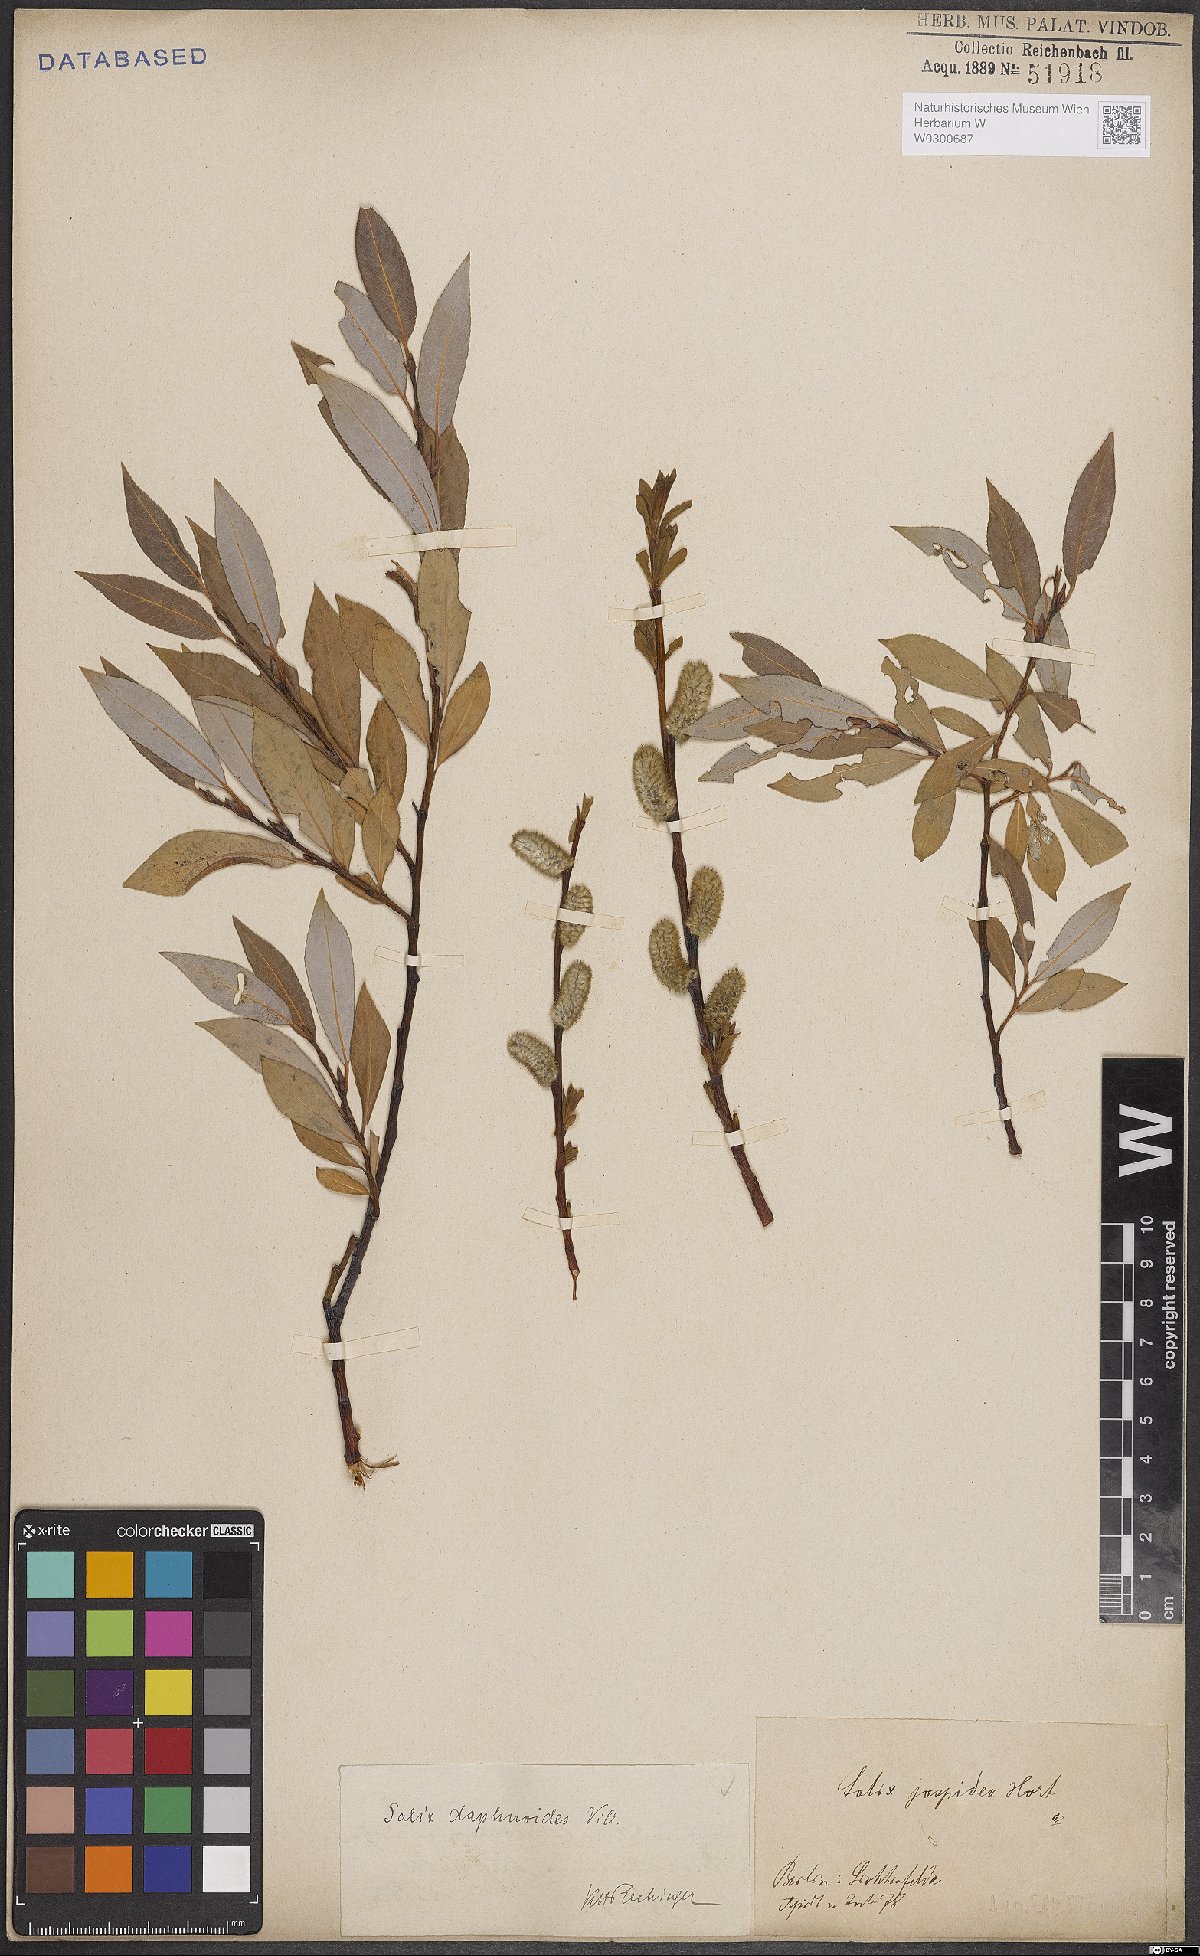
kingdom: Plantae
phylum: Tracheophyta
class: Magnoliopsida
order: Malpighiales
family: Salicaceae
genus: Salix
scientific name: Salix daphnoides
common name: European violet-willow
